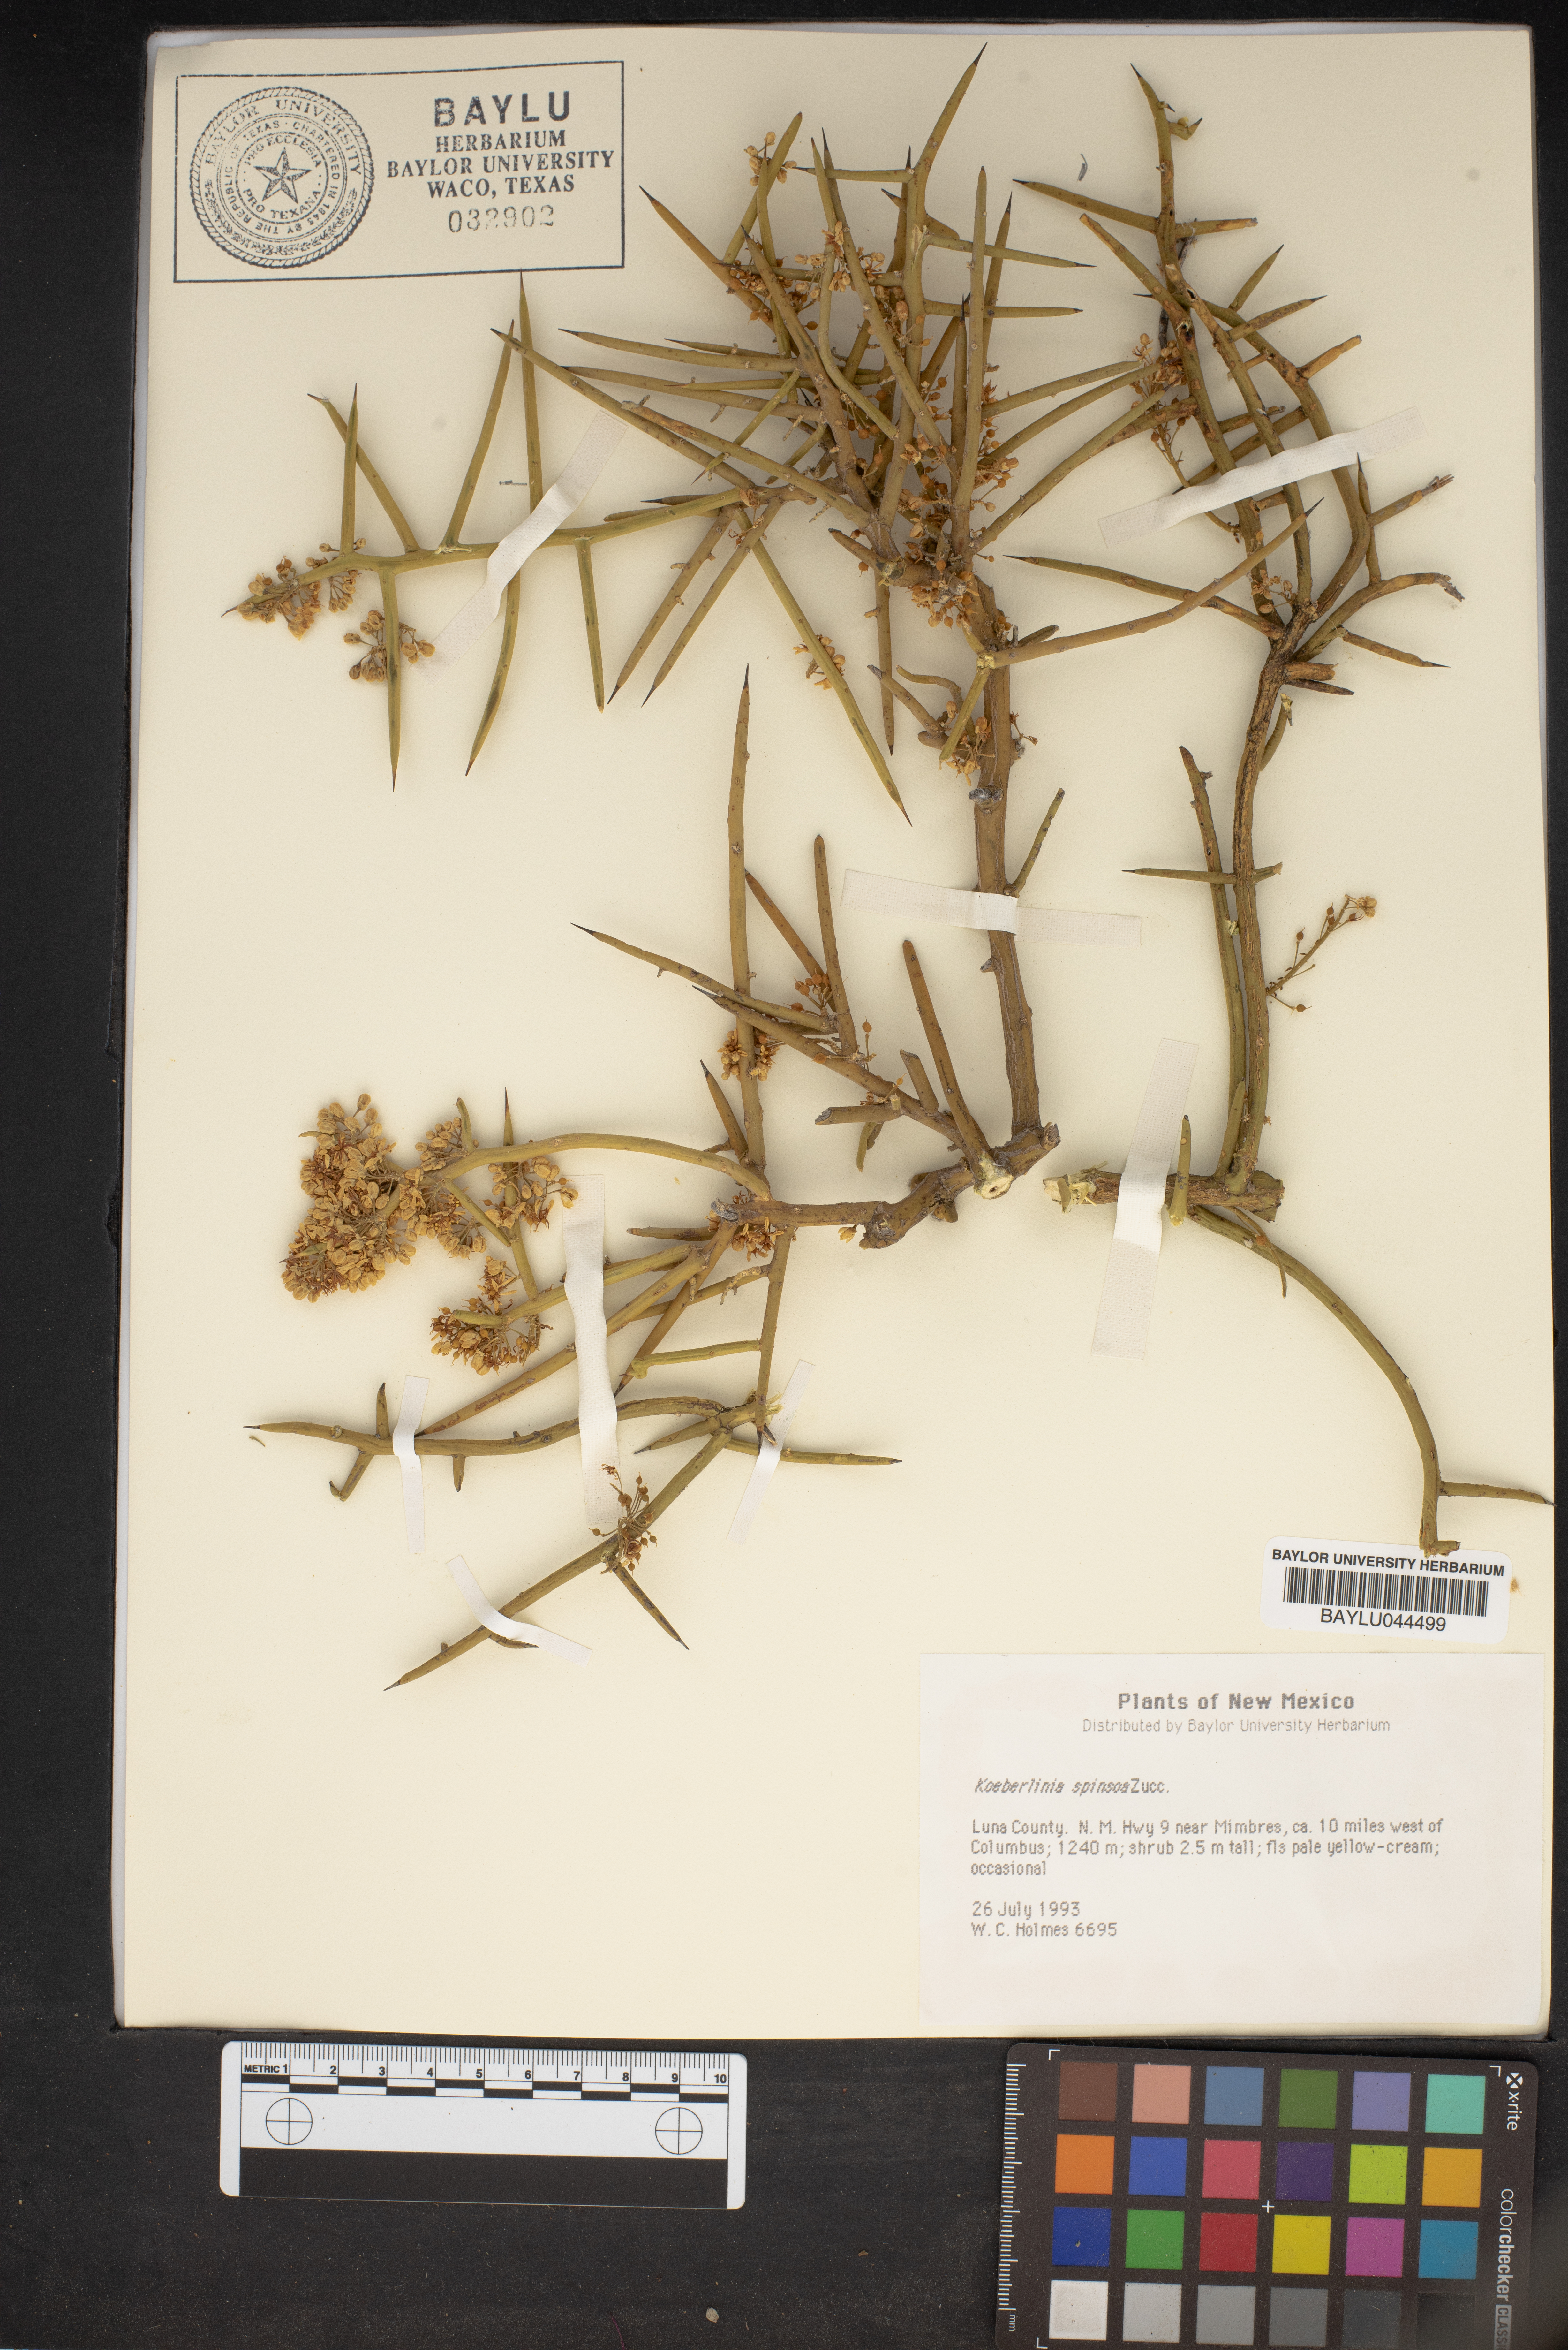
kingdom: Plantae
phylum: Tracheophyta
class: Magnoliopsida
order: Brassicales
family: Koeberliniaceae
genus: Koeberlinia
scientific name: Koeberlinia spinosa
